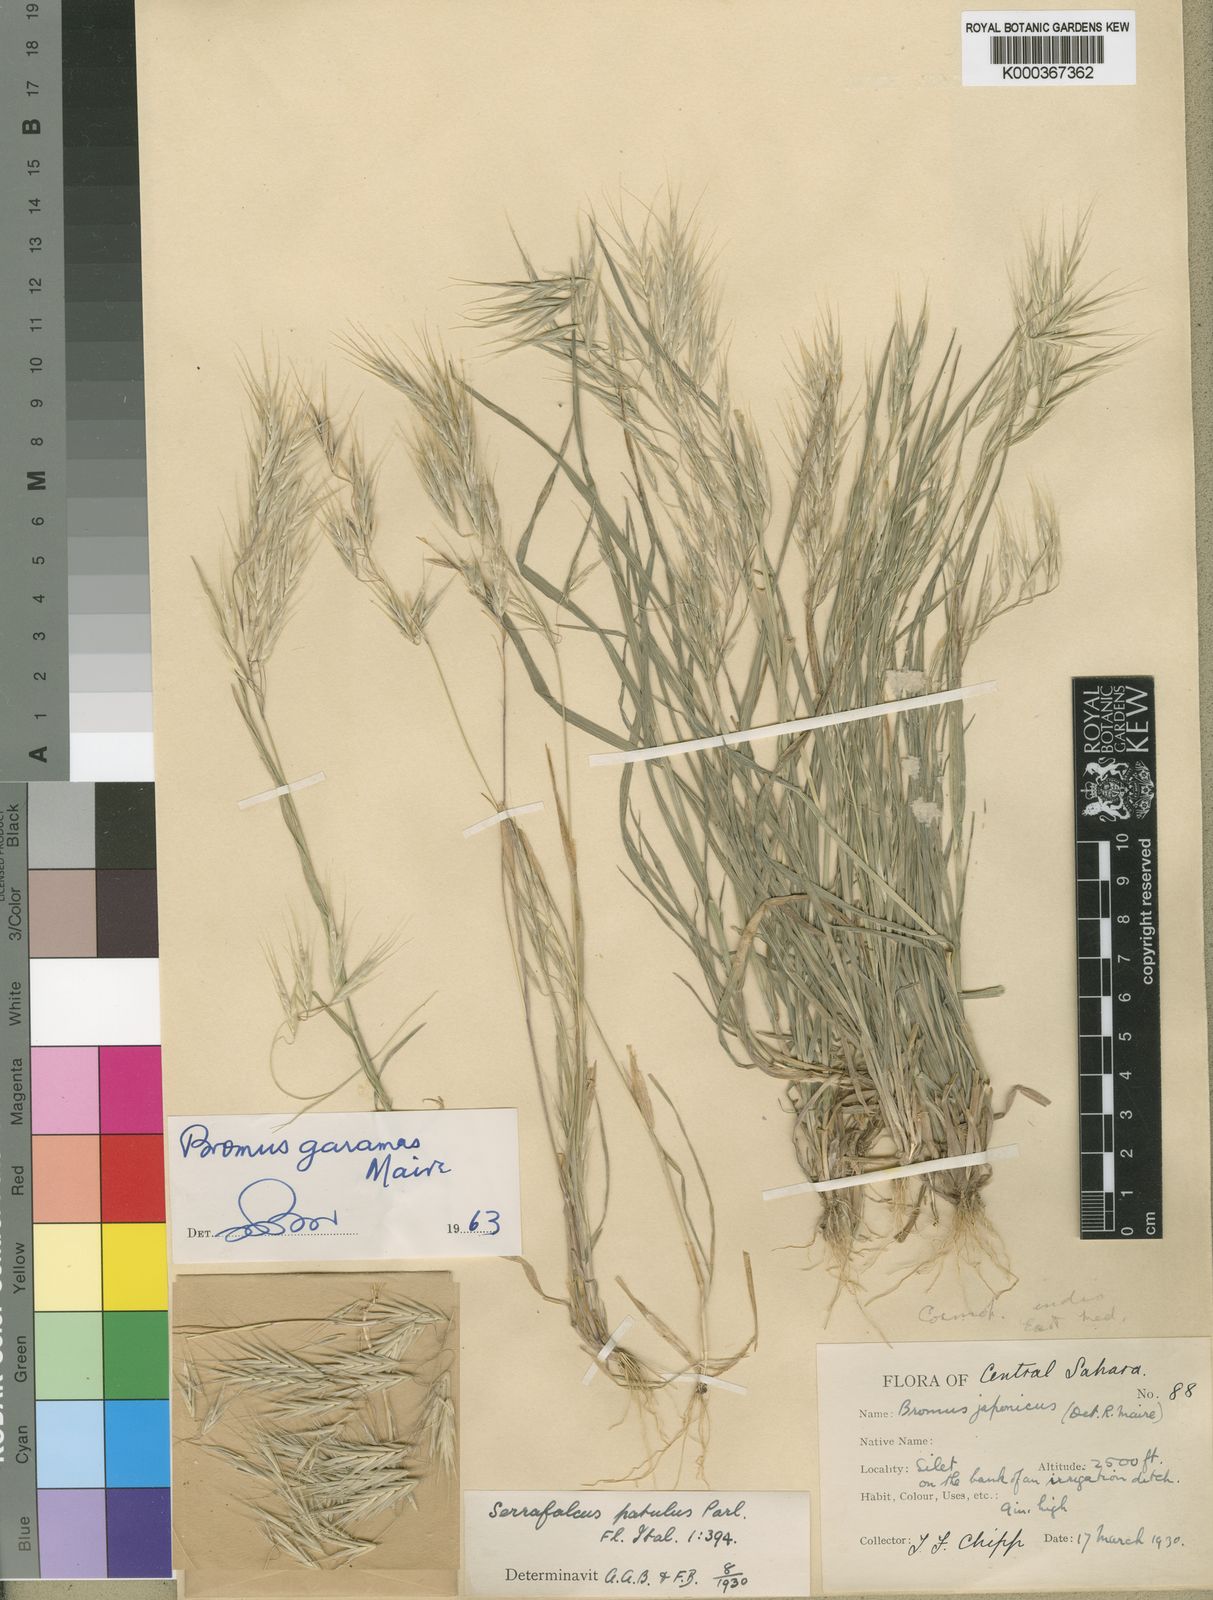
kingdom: Plantae
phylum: Tracheophyta
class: Liliopsida
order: Poales
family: Poaceae
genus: Bromus
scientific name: Bromus pectinatus
